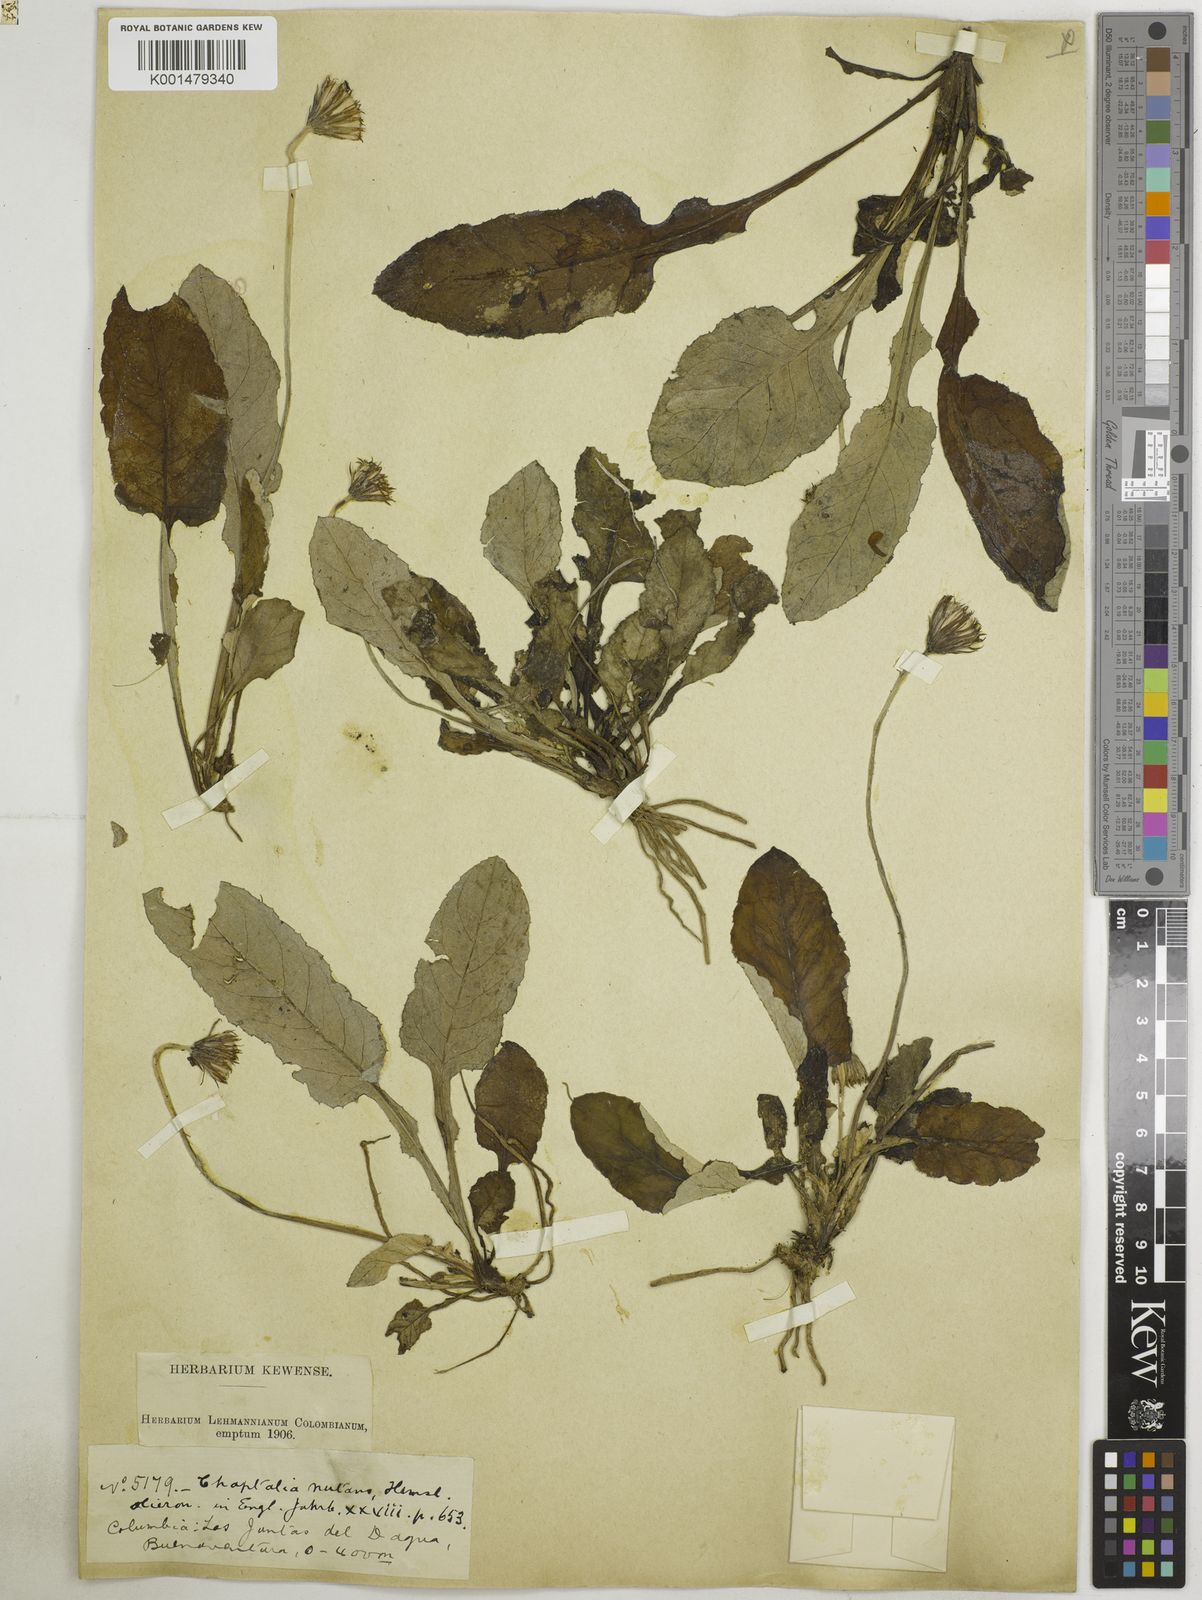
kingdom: Plantae
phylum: Tracheophyta
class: Magnoliopsida
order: Asterales
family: Asteraceae
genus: Chaptalia
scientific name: Chaptalia nutans
